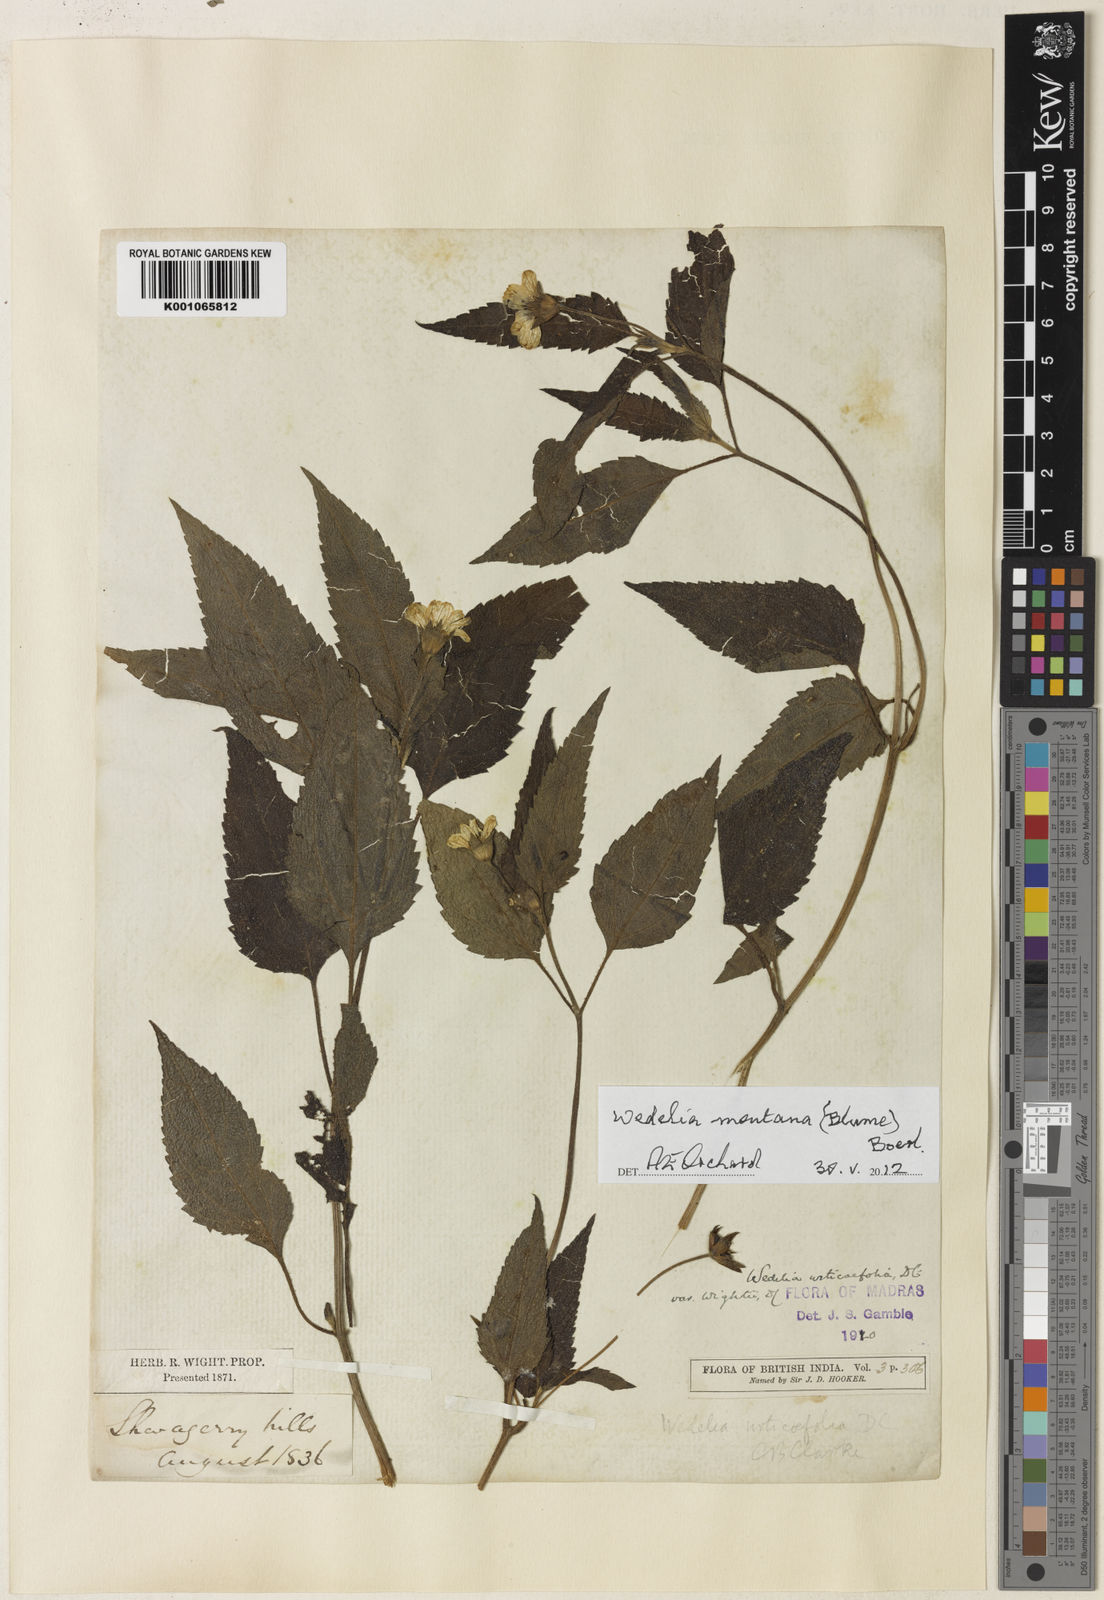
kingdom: Plantae
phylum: Tracheophyta
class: Magnoliopsida
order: Asterales
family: Asteraceae
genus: Indocypraea
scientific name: Indocypraea montana
